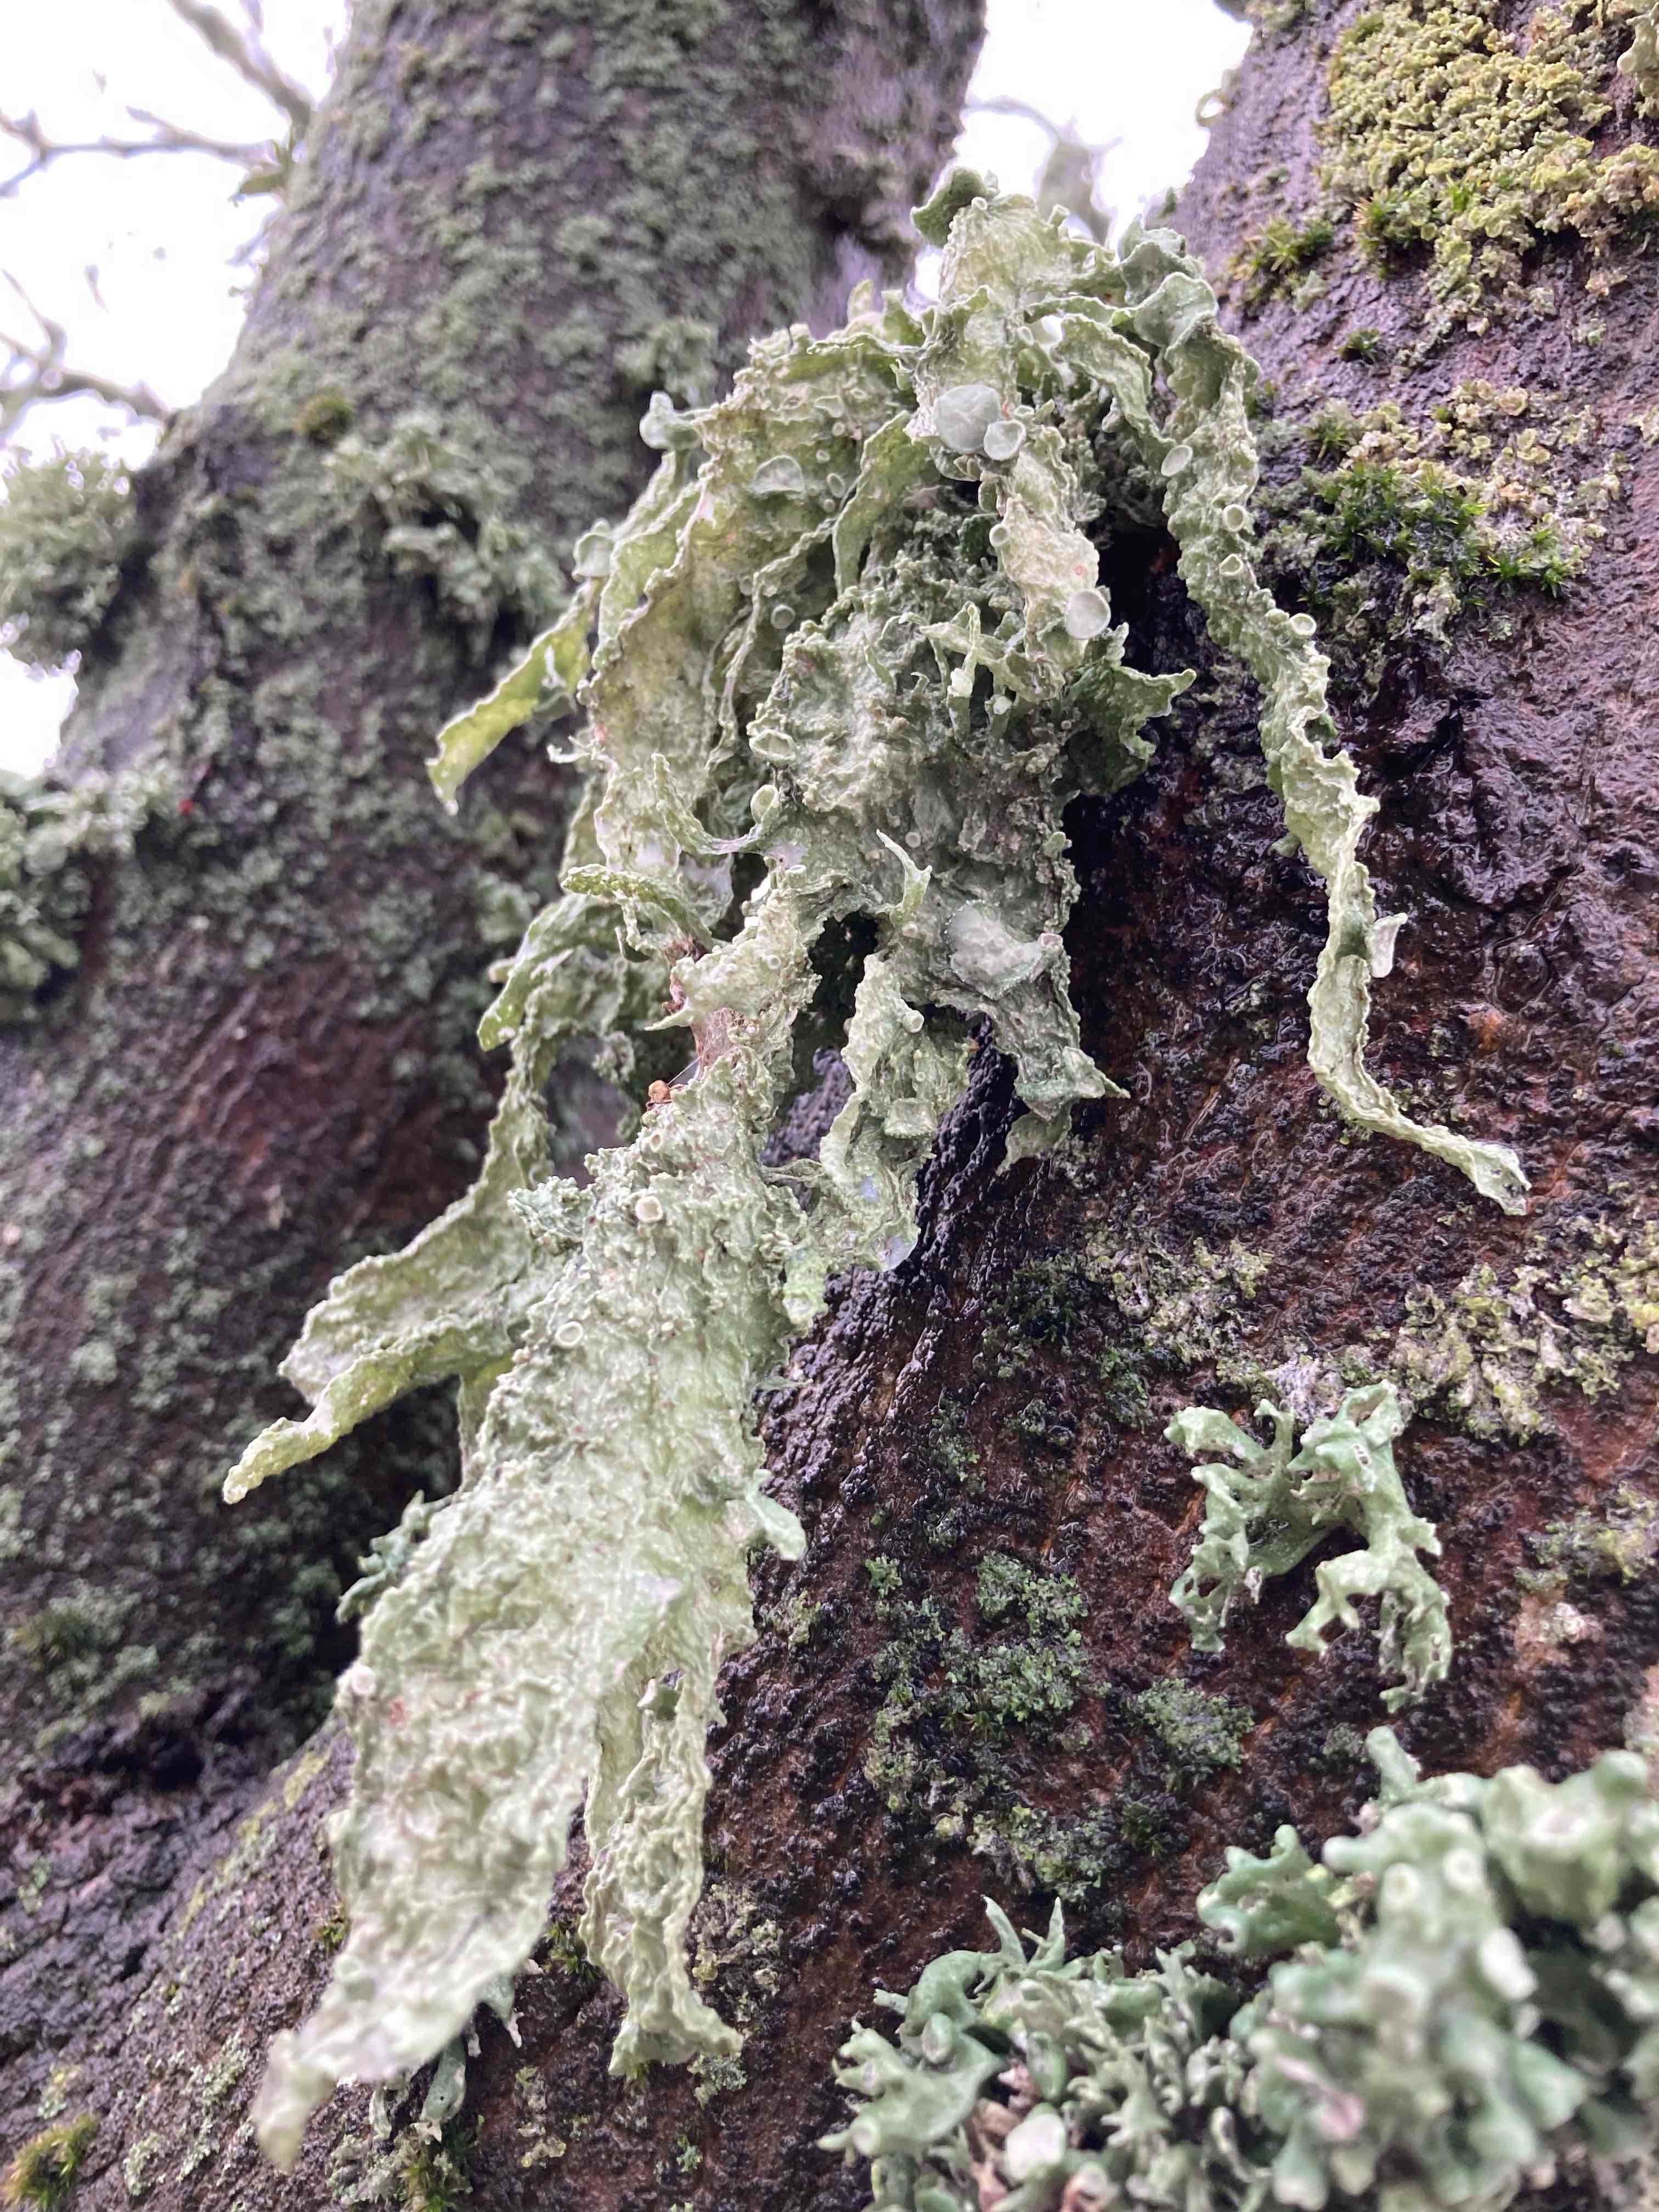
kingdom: Fungi
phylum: Ascomycota
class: Lecanoromycetes
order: Lecanorales
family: Ramalinaceae
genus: Ramalina
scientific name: Ramalina fraxinea
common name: stor grenlav
